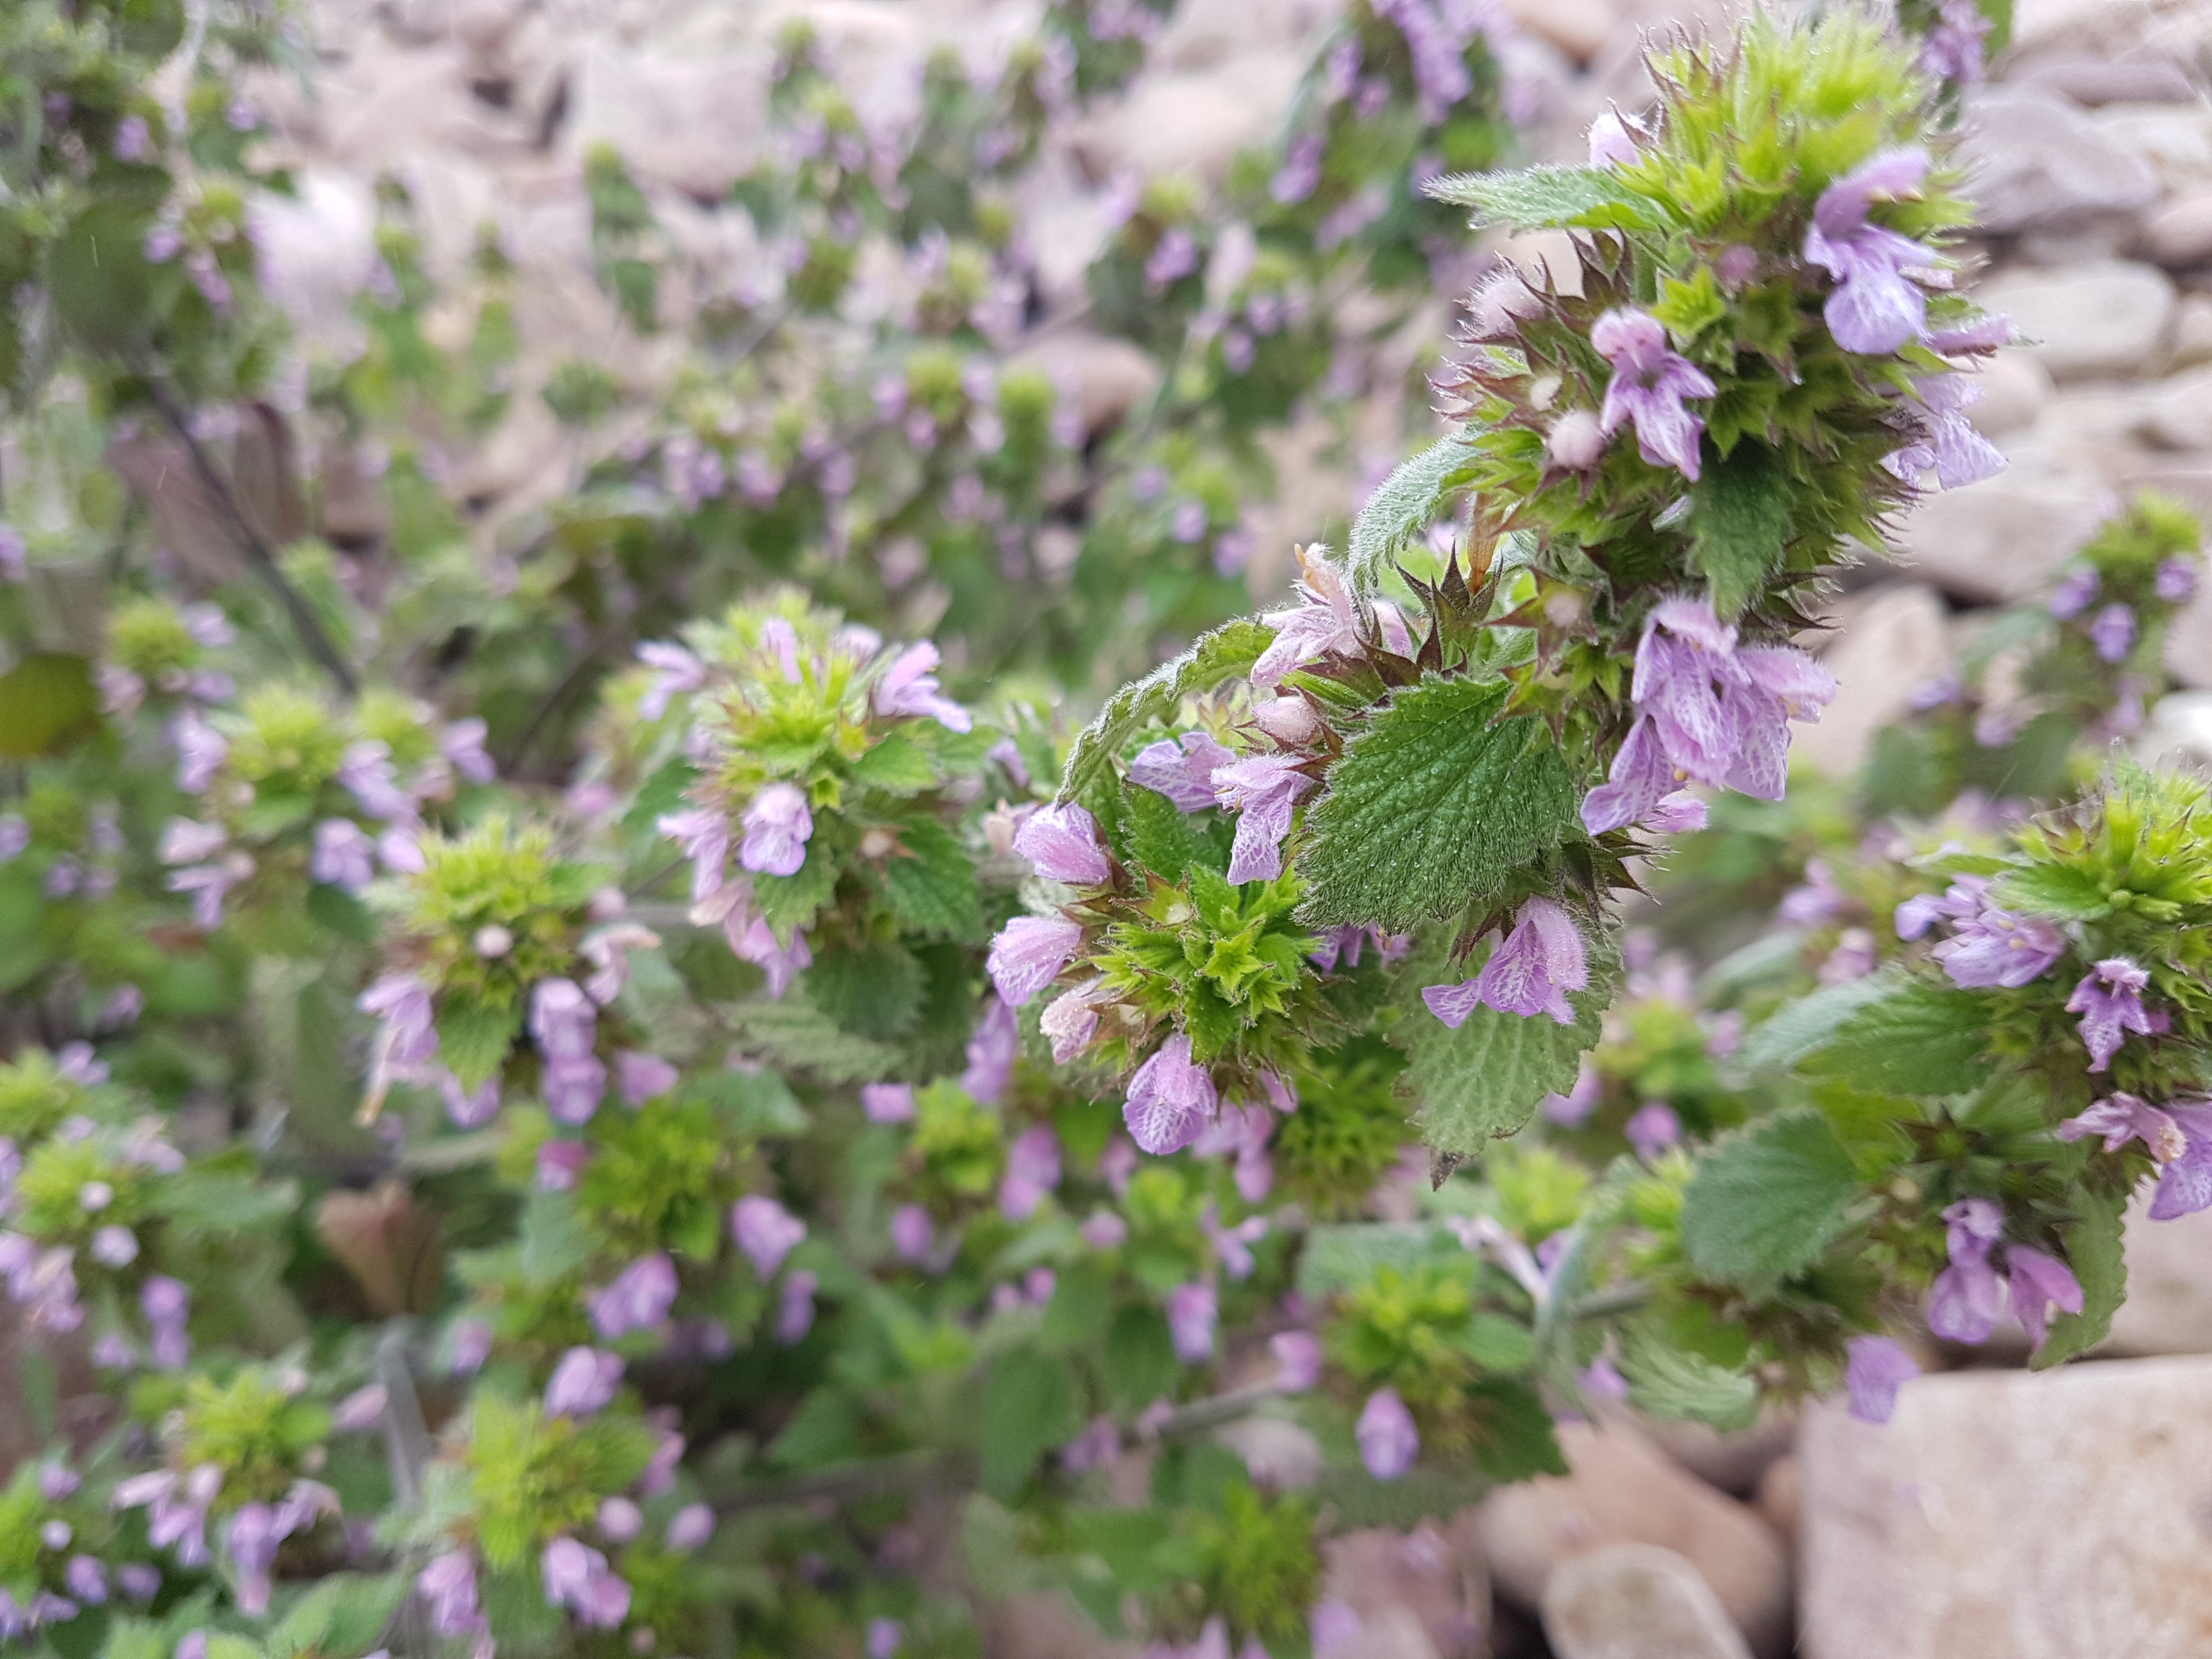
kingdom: Plantae
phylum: Tracheophyta
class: Magnoliopsida
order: Lamiales
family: Lamiaceae
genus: Ballota
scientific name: Ballota nigra
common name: Tandbæger
